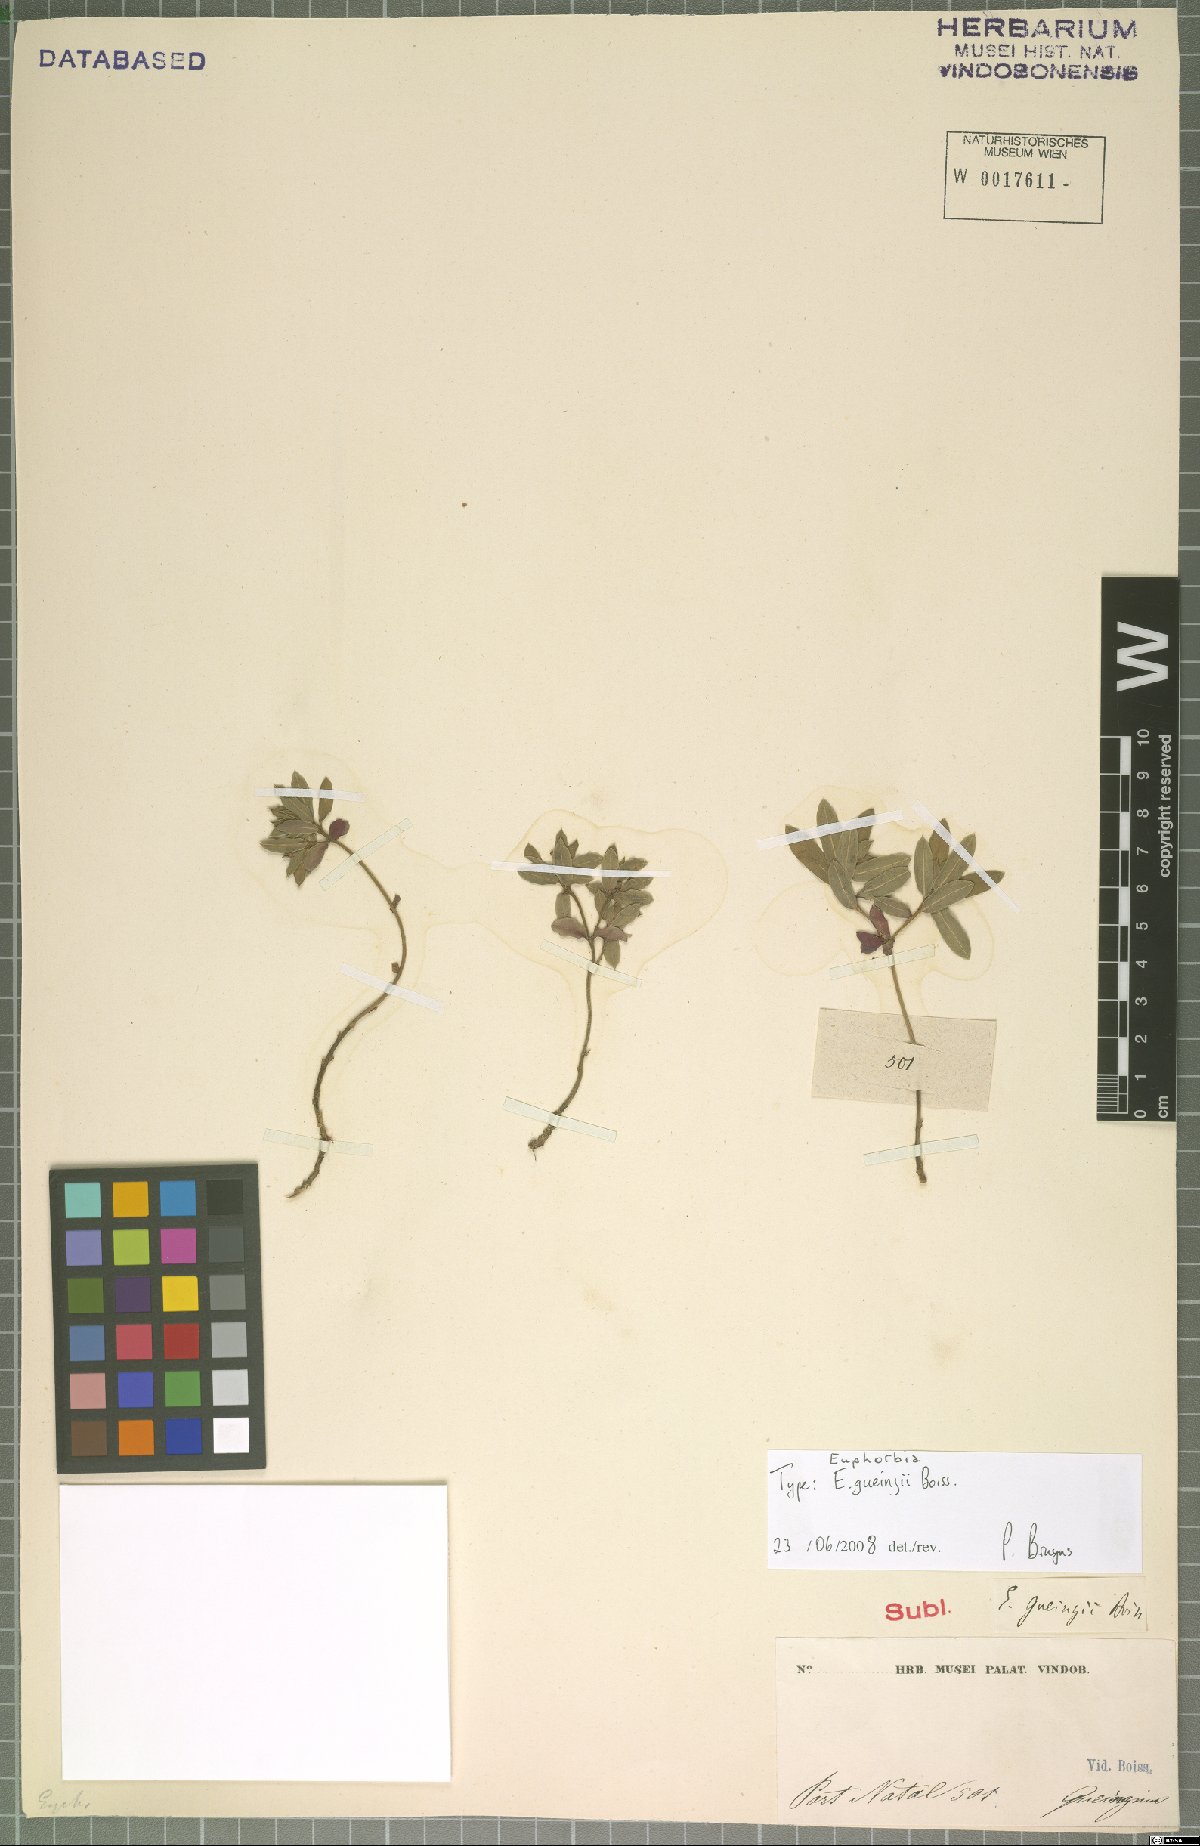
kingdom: Plantae
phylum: Tracheophyta
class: Magnoliopsida
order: Malpighiales
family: Euphorbiaceae
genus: Euphorbia
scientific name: Euphorbia gueinzii
